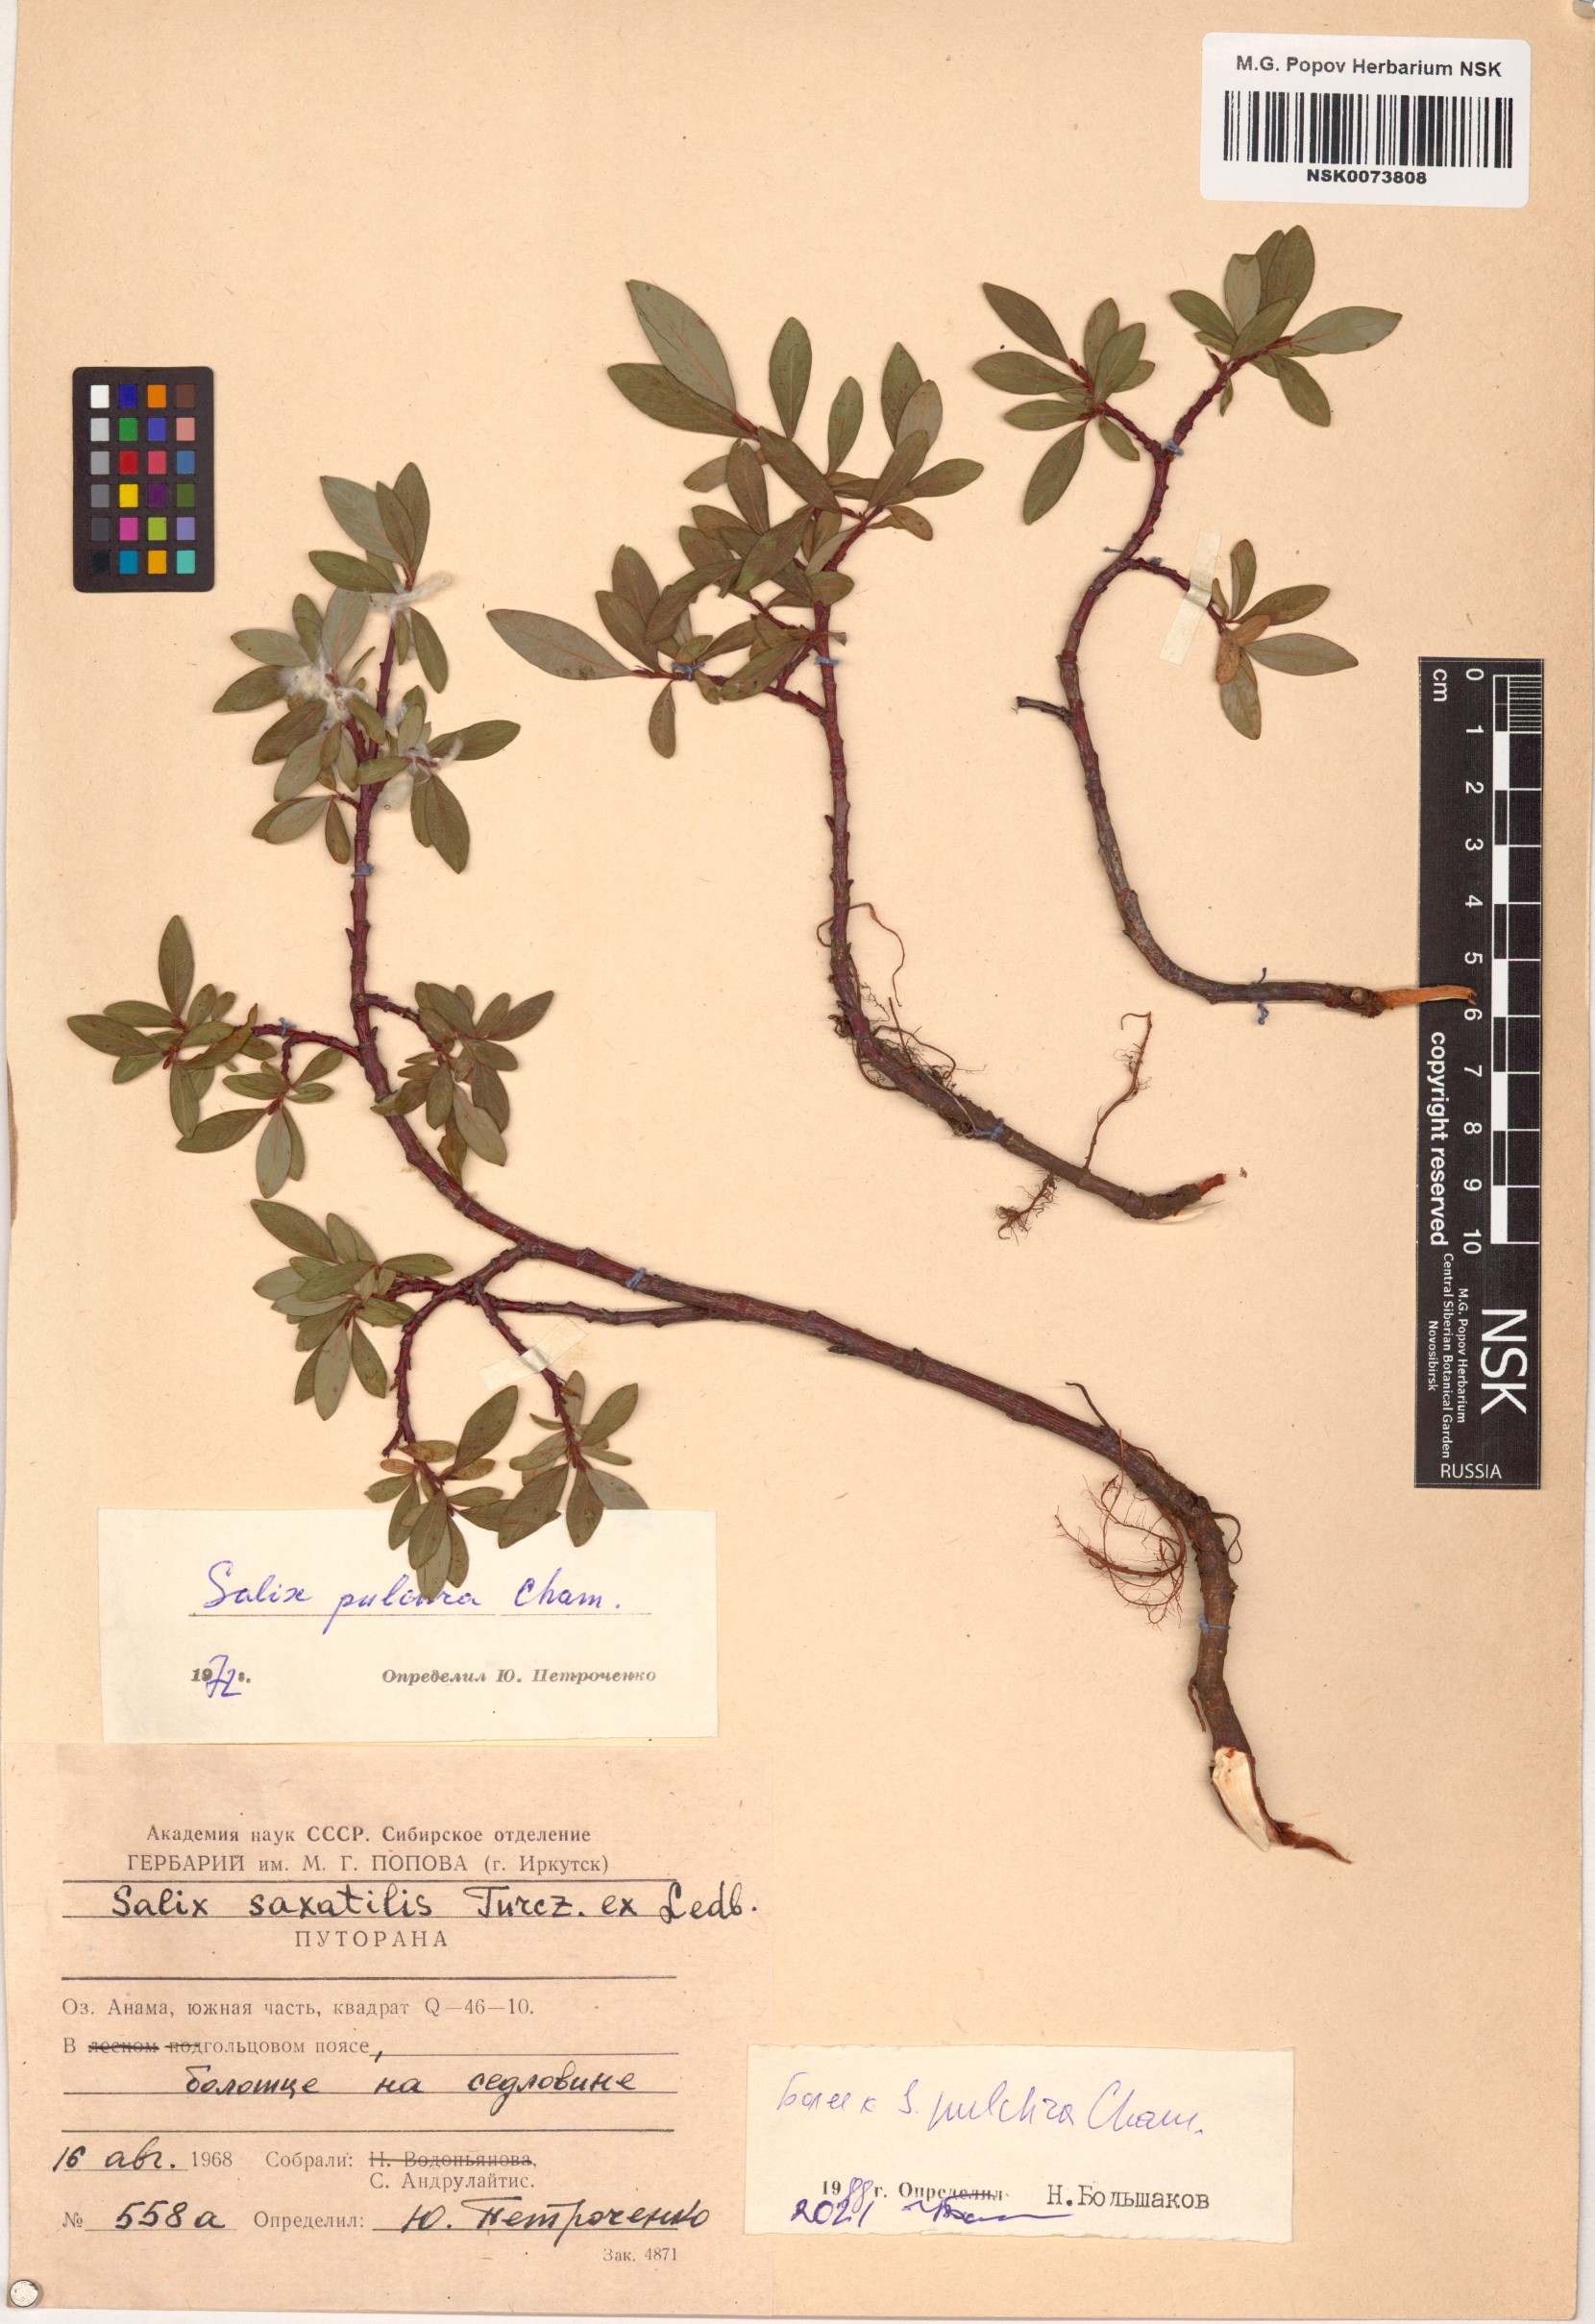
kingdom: Plantae
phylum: Tracheophyta
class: Magnoliopsida
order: Malpighiales
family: Salicaceae
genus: Salix
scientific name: Salix pulchra
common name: Diamond-leaved willow
